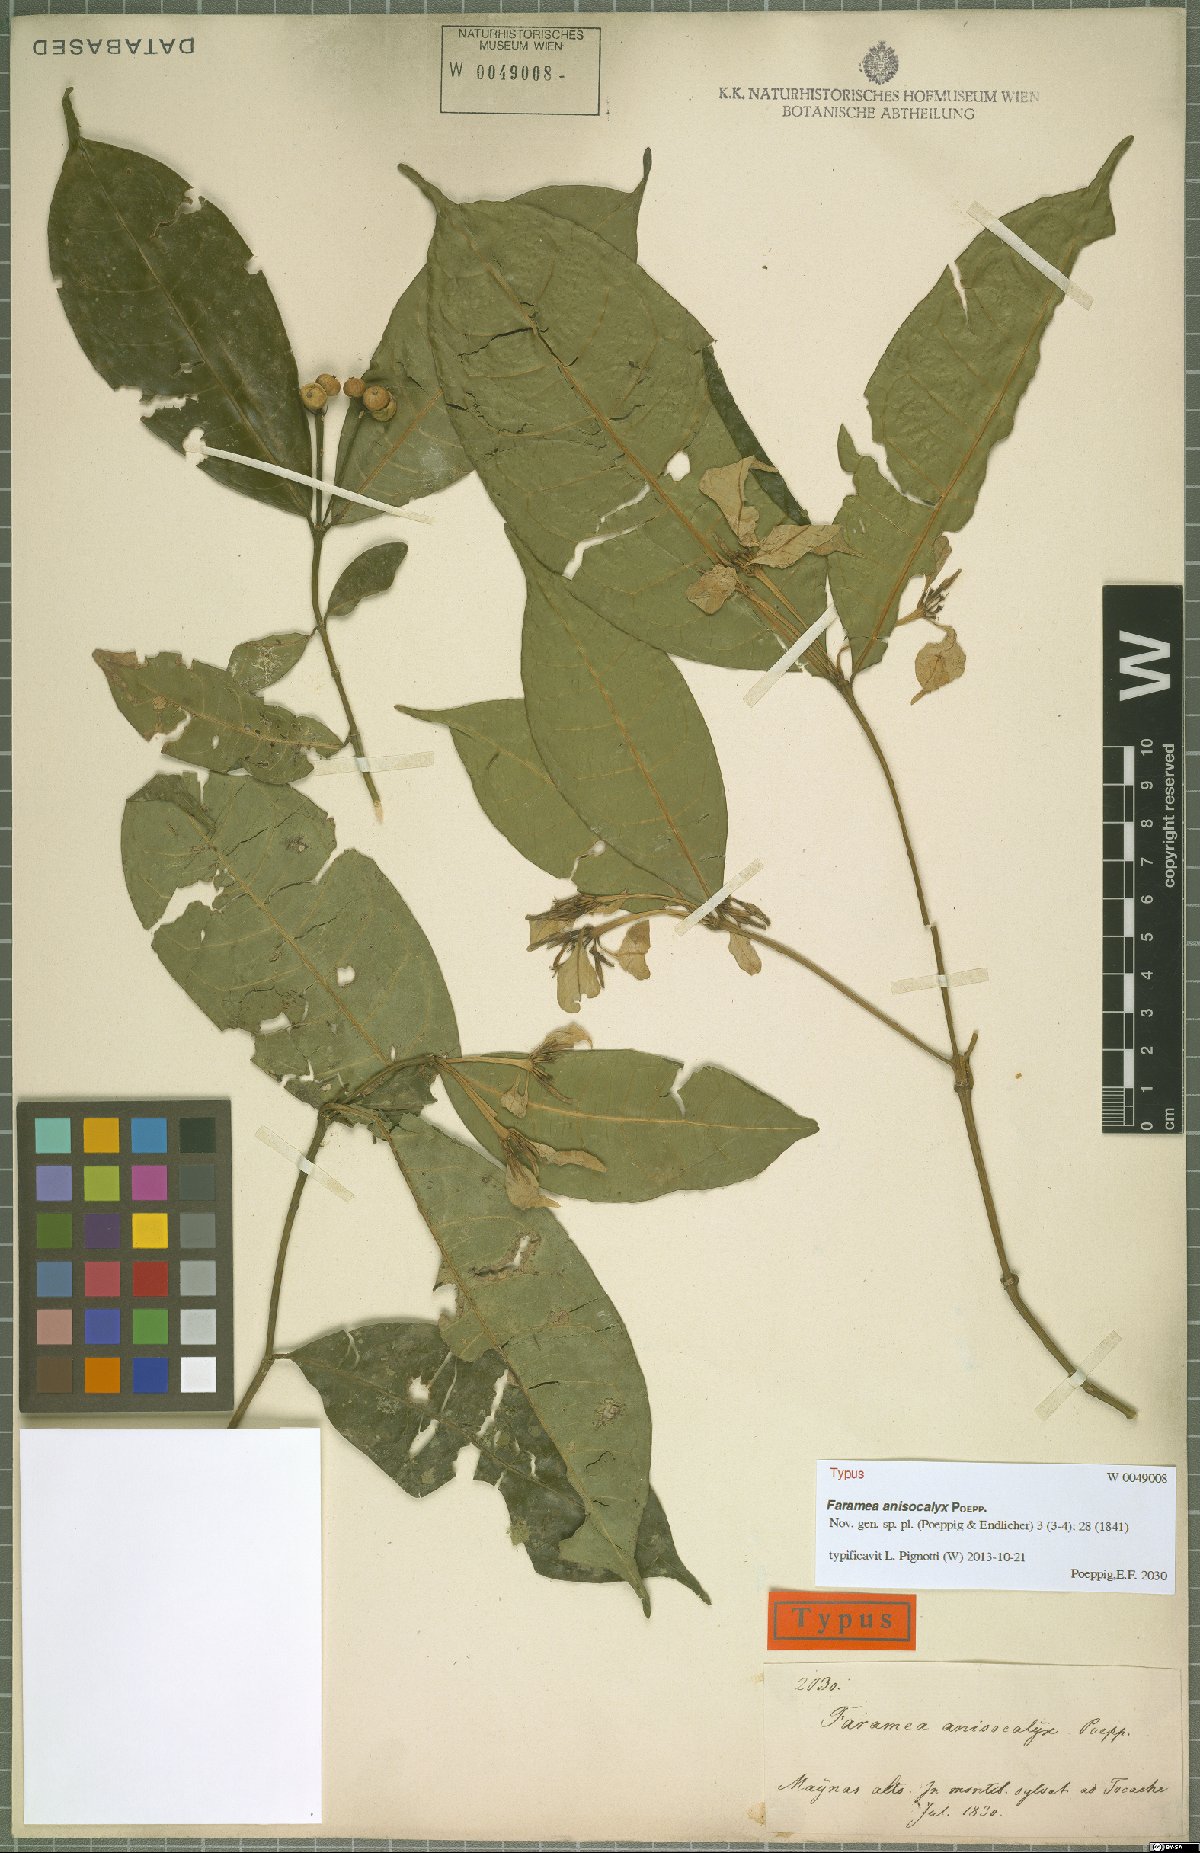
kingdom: Plantae
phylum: Tracheophyta
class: Magnoliopsida
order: Gentianales
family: Rubiaceae
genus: Faramea
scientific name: Faramea anisocalyx
